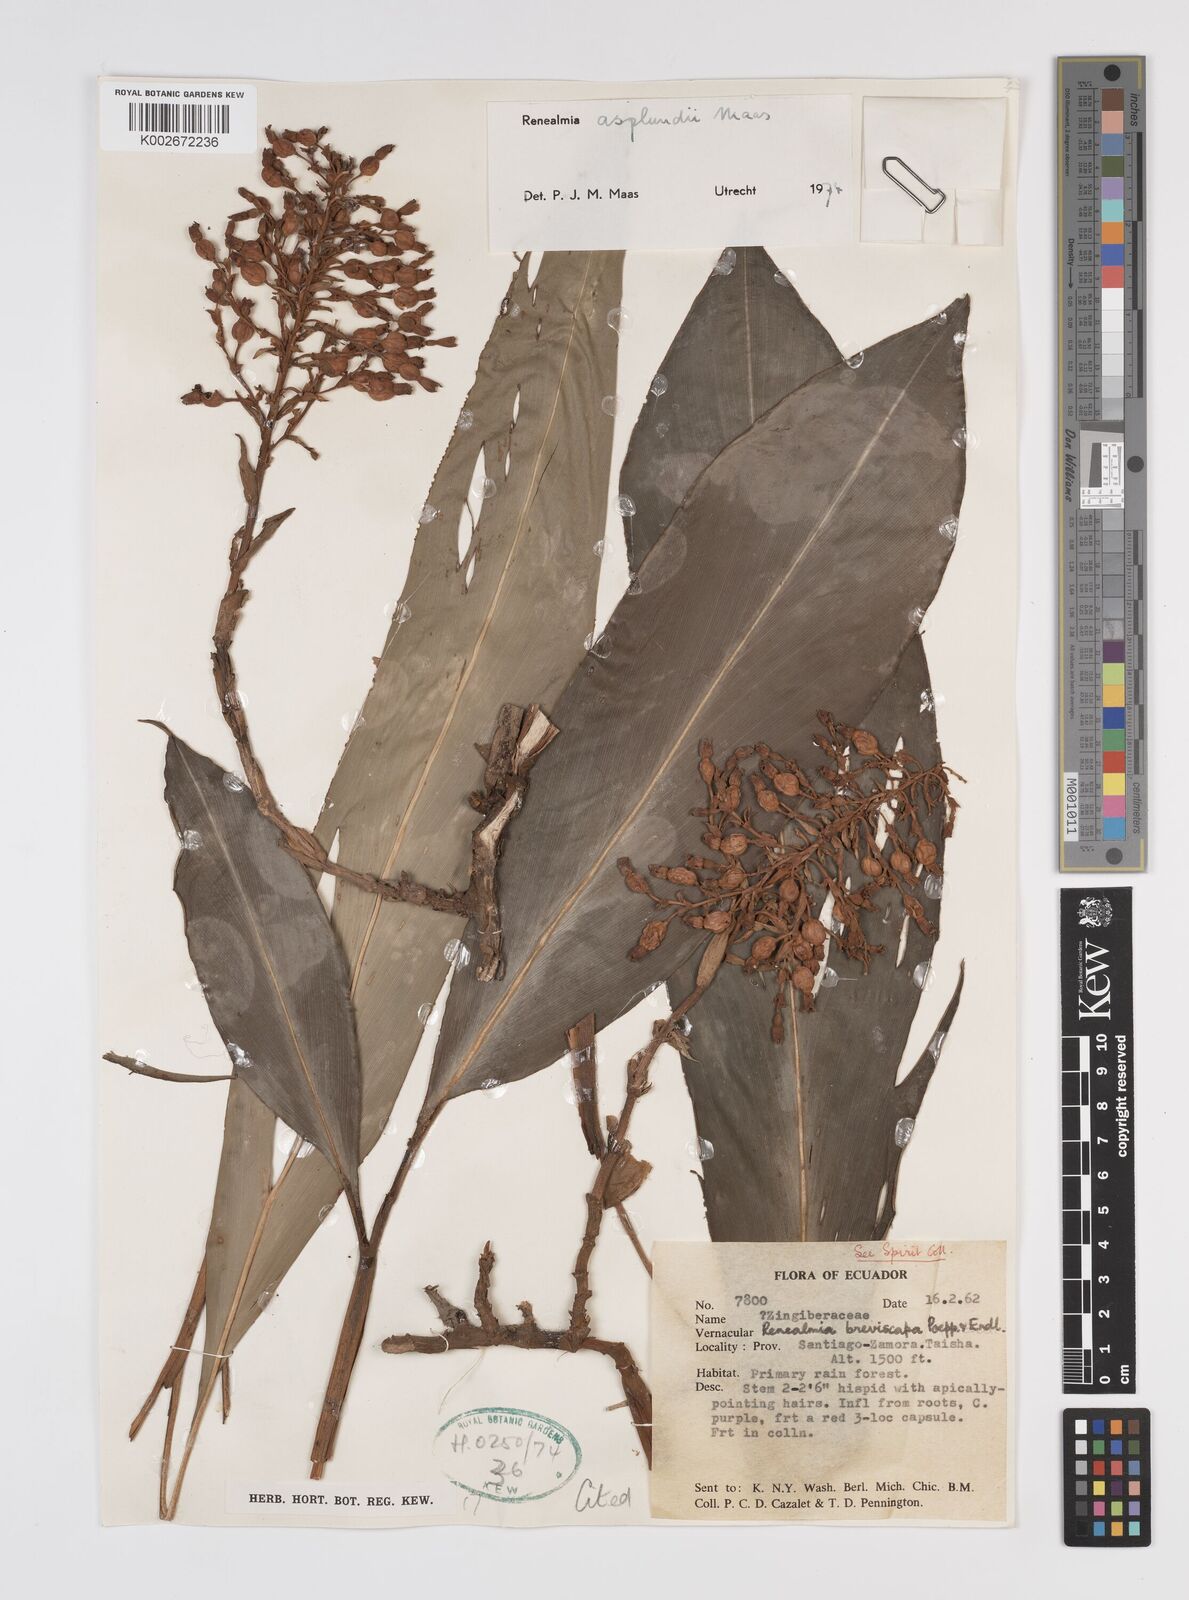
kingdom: Plantae
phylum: Tracheophyta
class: Liliopsida
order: Zingiberales
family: Zingiberaceae
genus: Renealmia
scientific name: Renealmia asplundii
